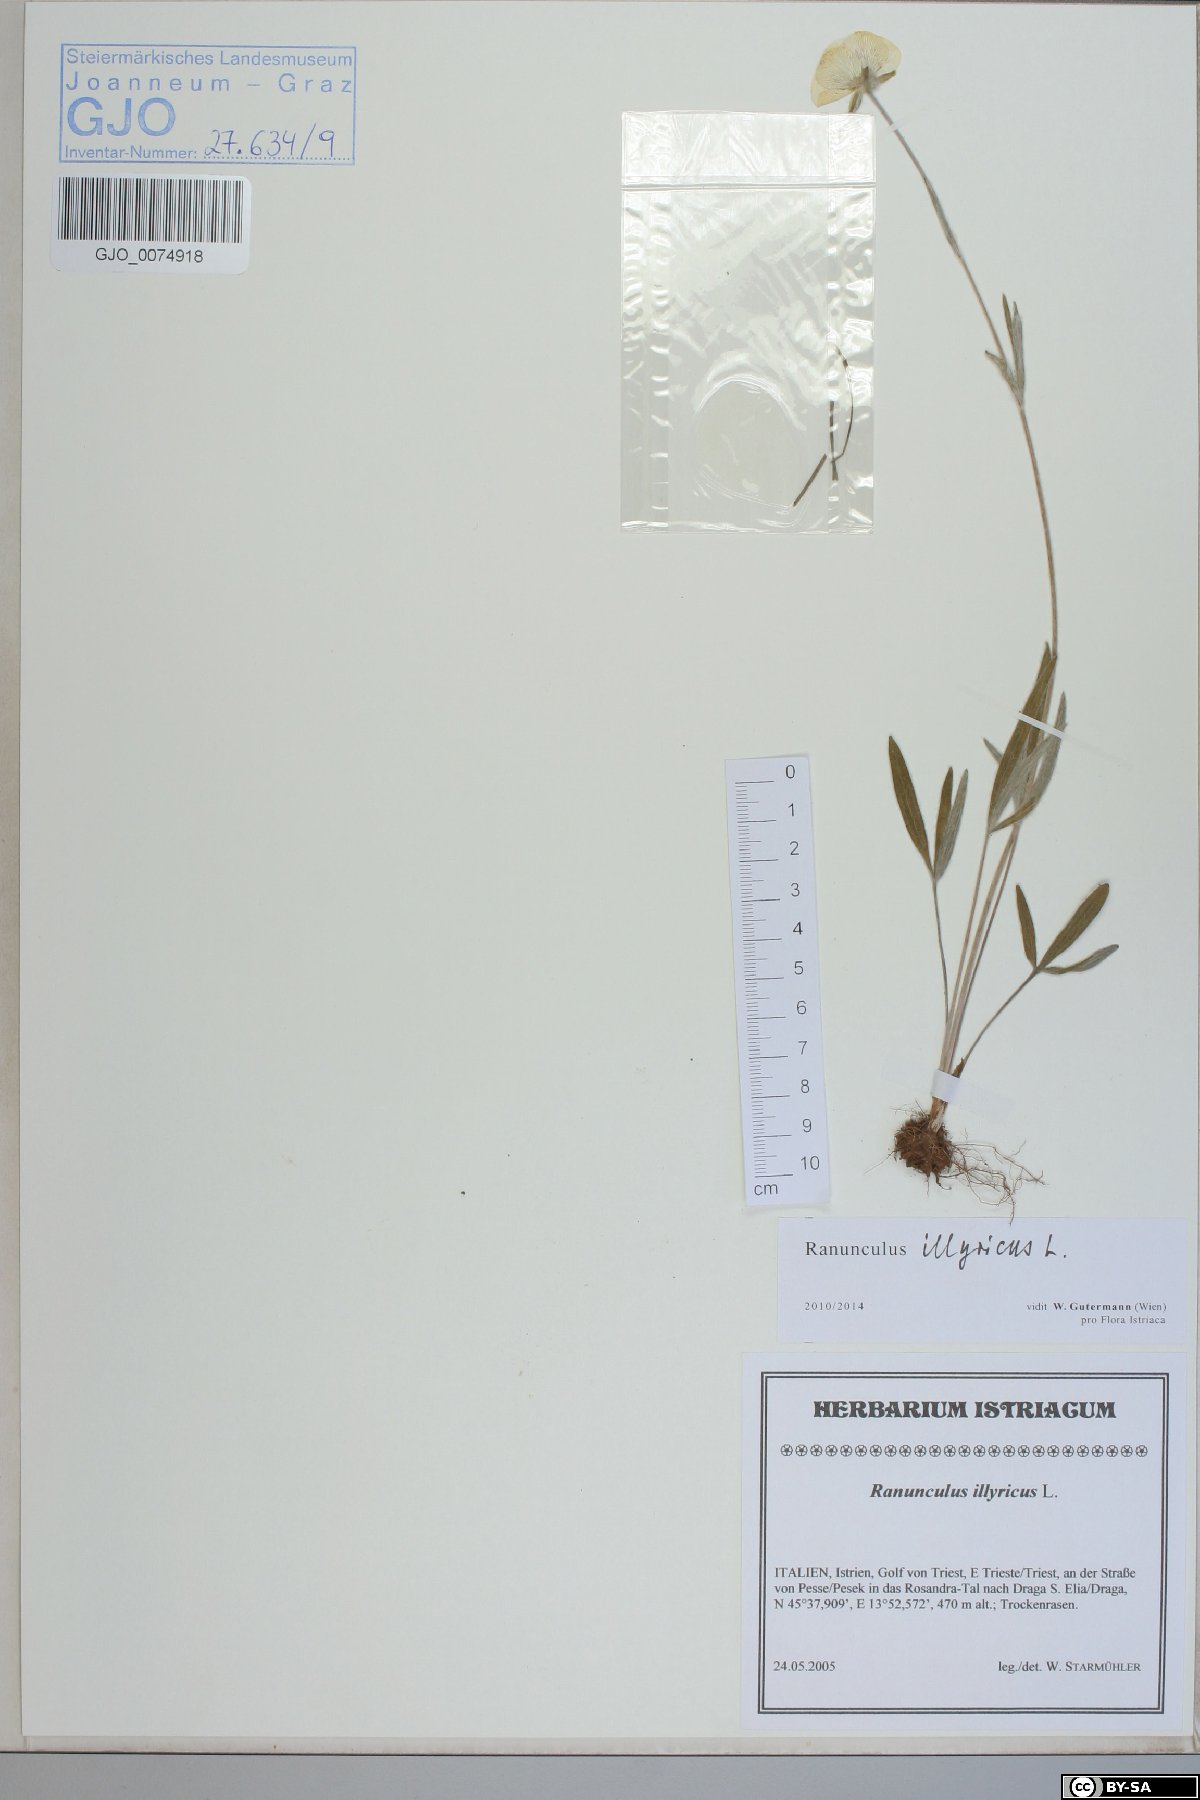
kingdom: Plantae
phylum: Tracheophyta
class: Magnoliopsida
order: Ranunculales
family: Ranunculaceae
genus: Ranunculus
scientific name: Ranunculus illyricus
